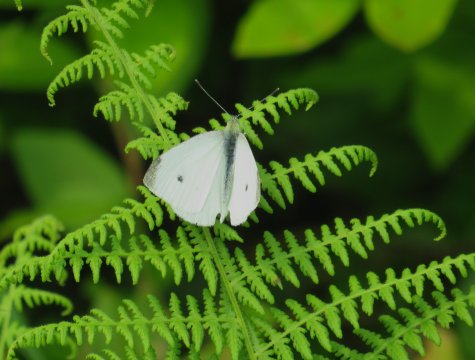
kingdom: Animalia
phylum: Arthropoda
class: Insecta
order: Lepidoptera
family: Pieridae
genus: Pieris
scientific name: Pieris rapae
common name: Cabbage White
